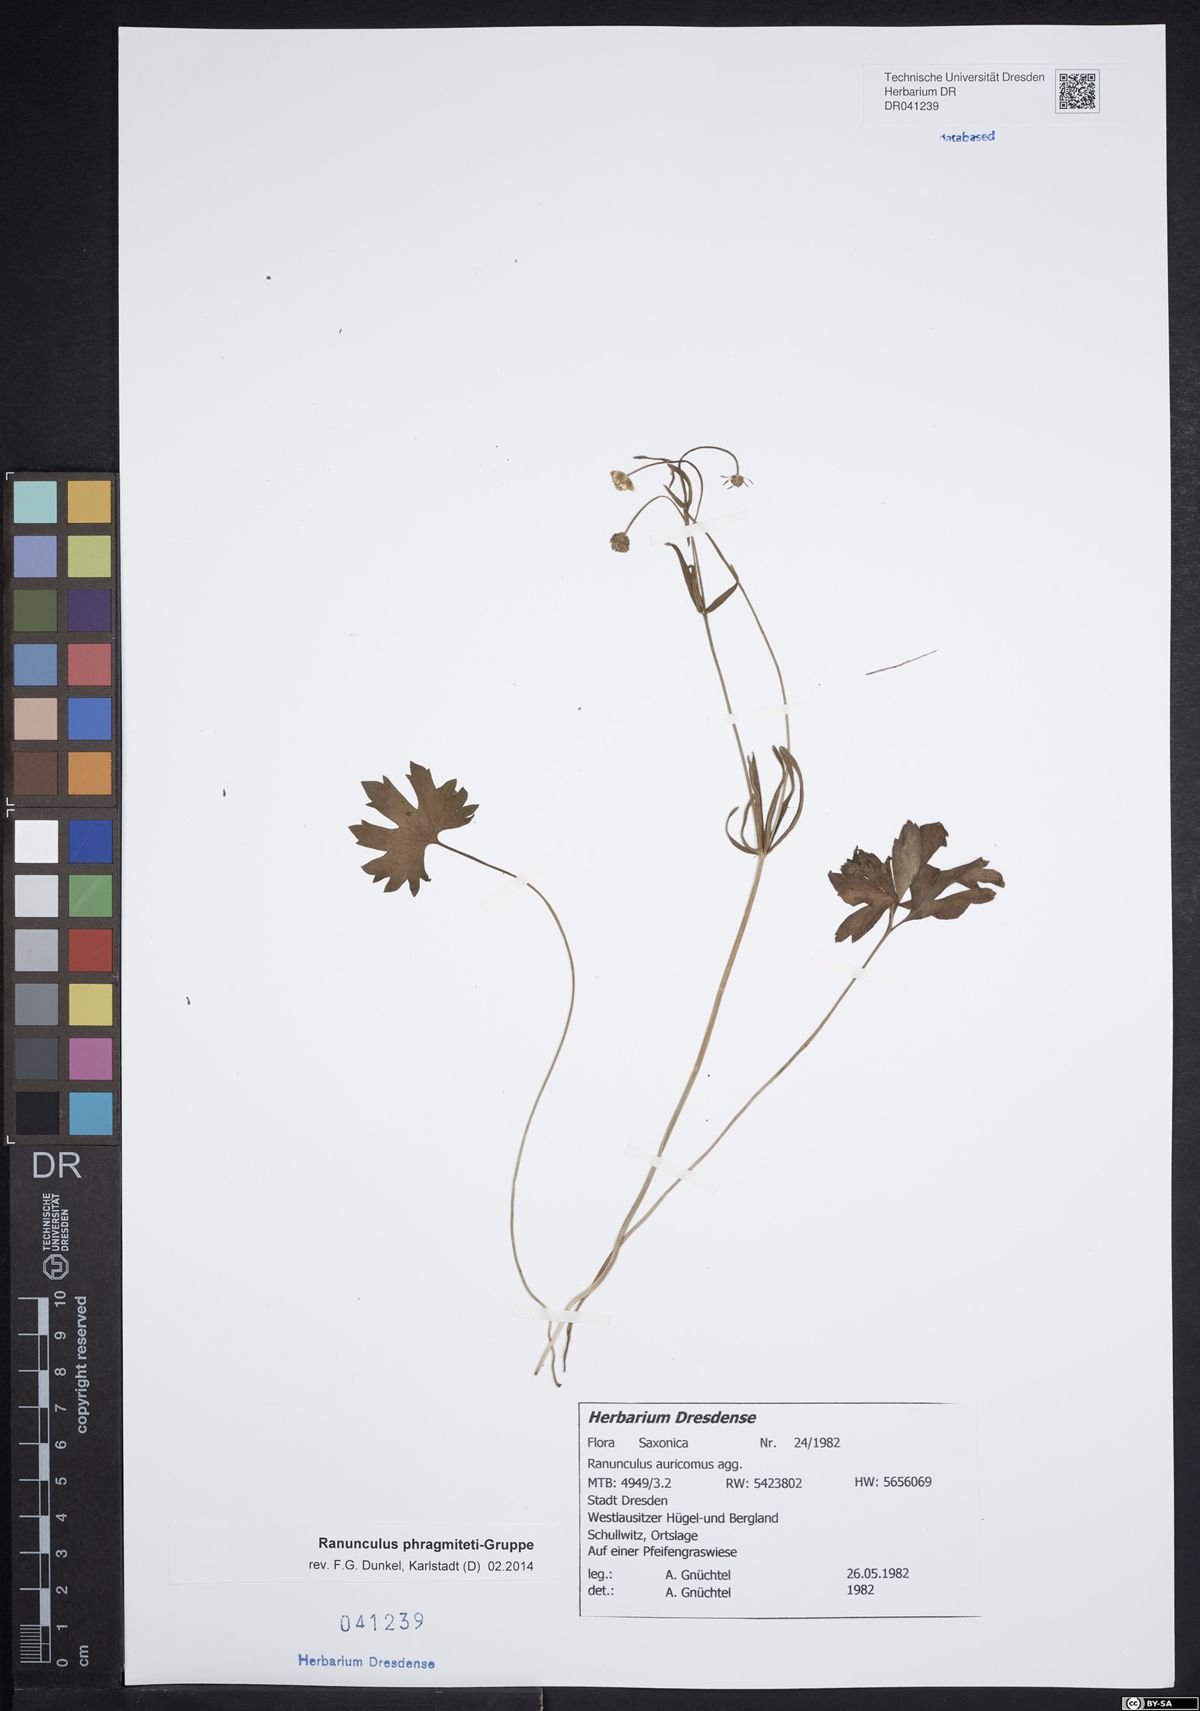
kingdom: Plantae
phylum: Tracheophyta
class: Magnoliopsida
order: Ranunculales
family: Ranunculaceae
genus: Ranunculus
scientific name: Ranunculus phragmiteti
